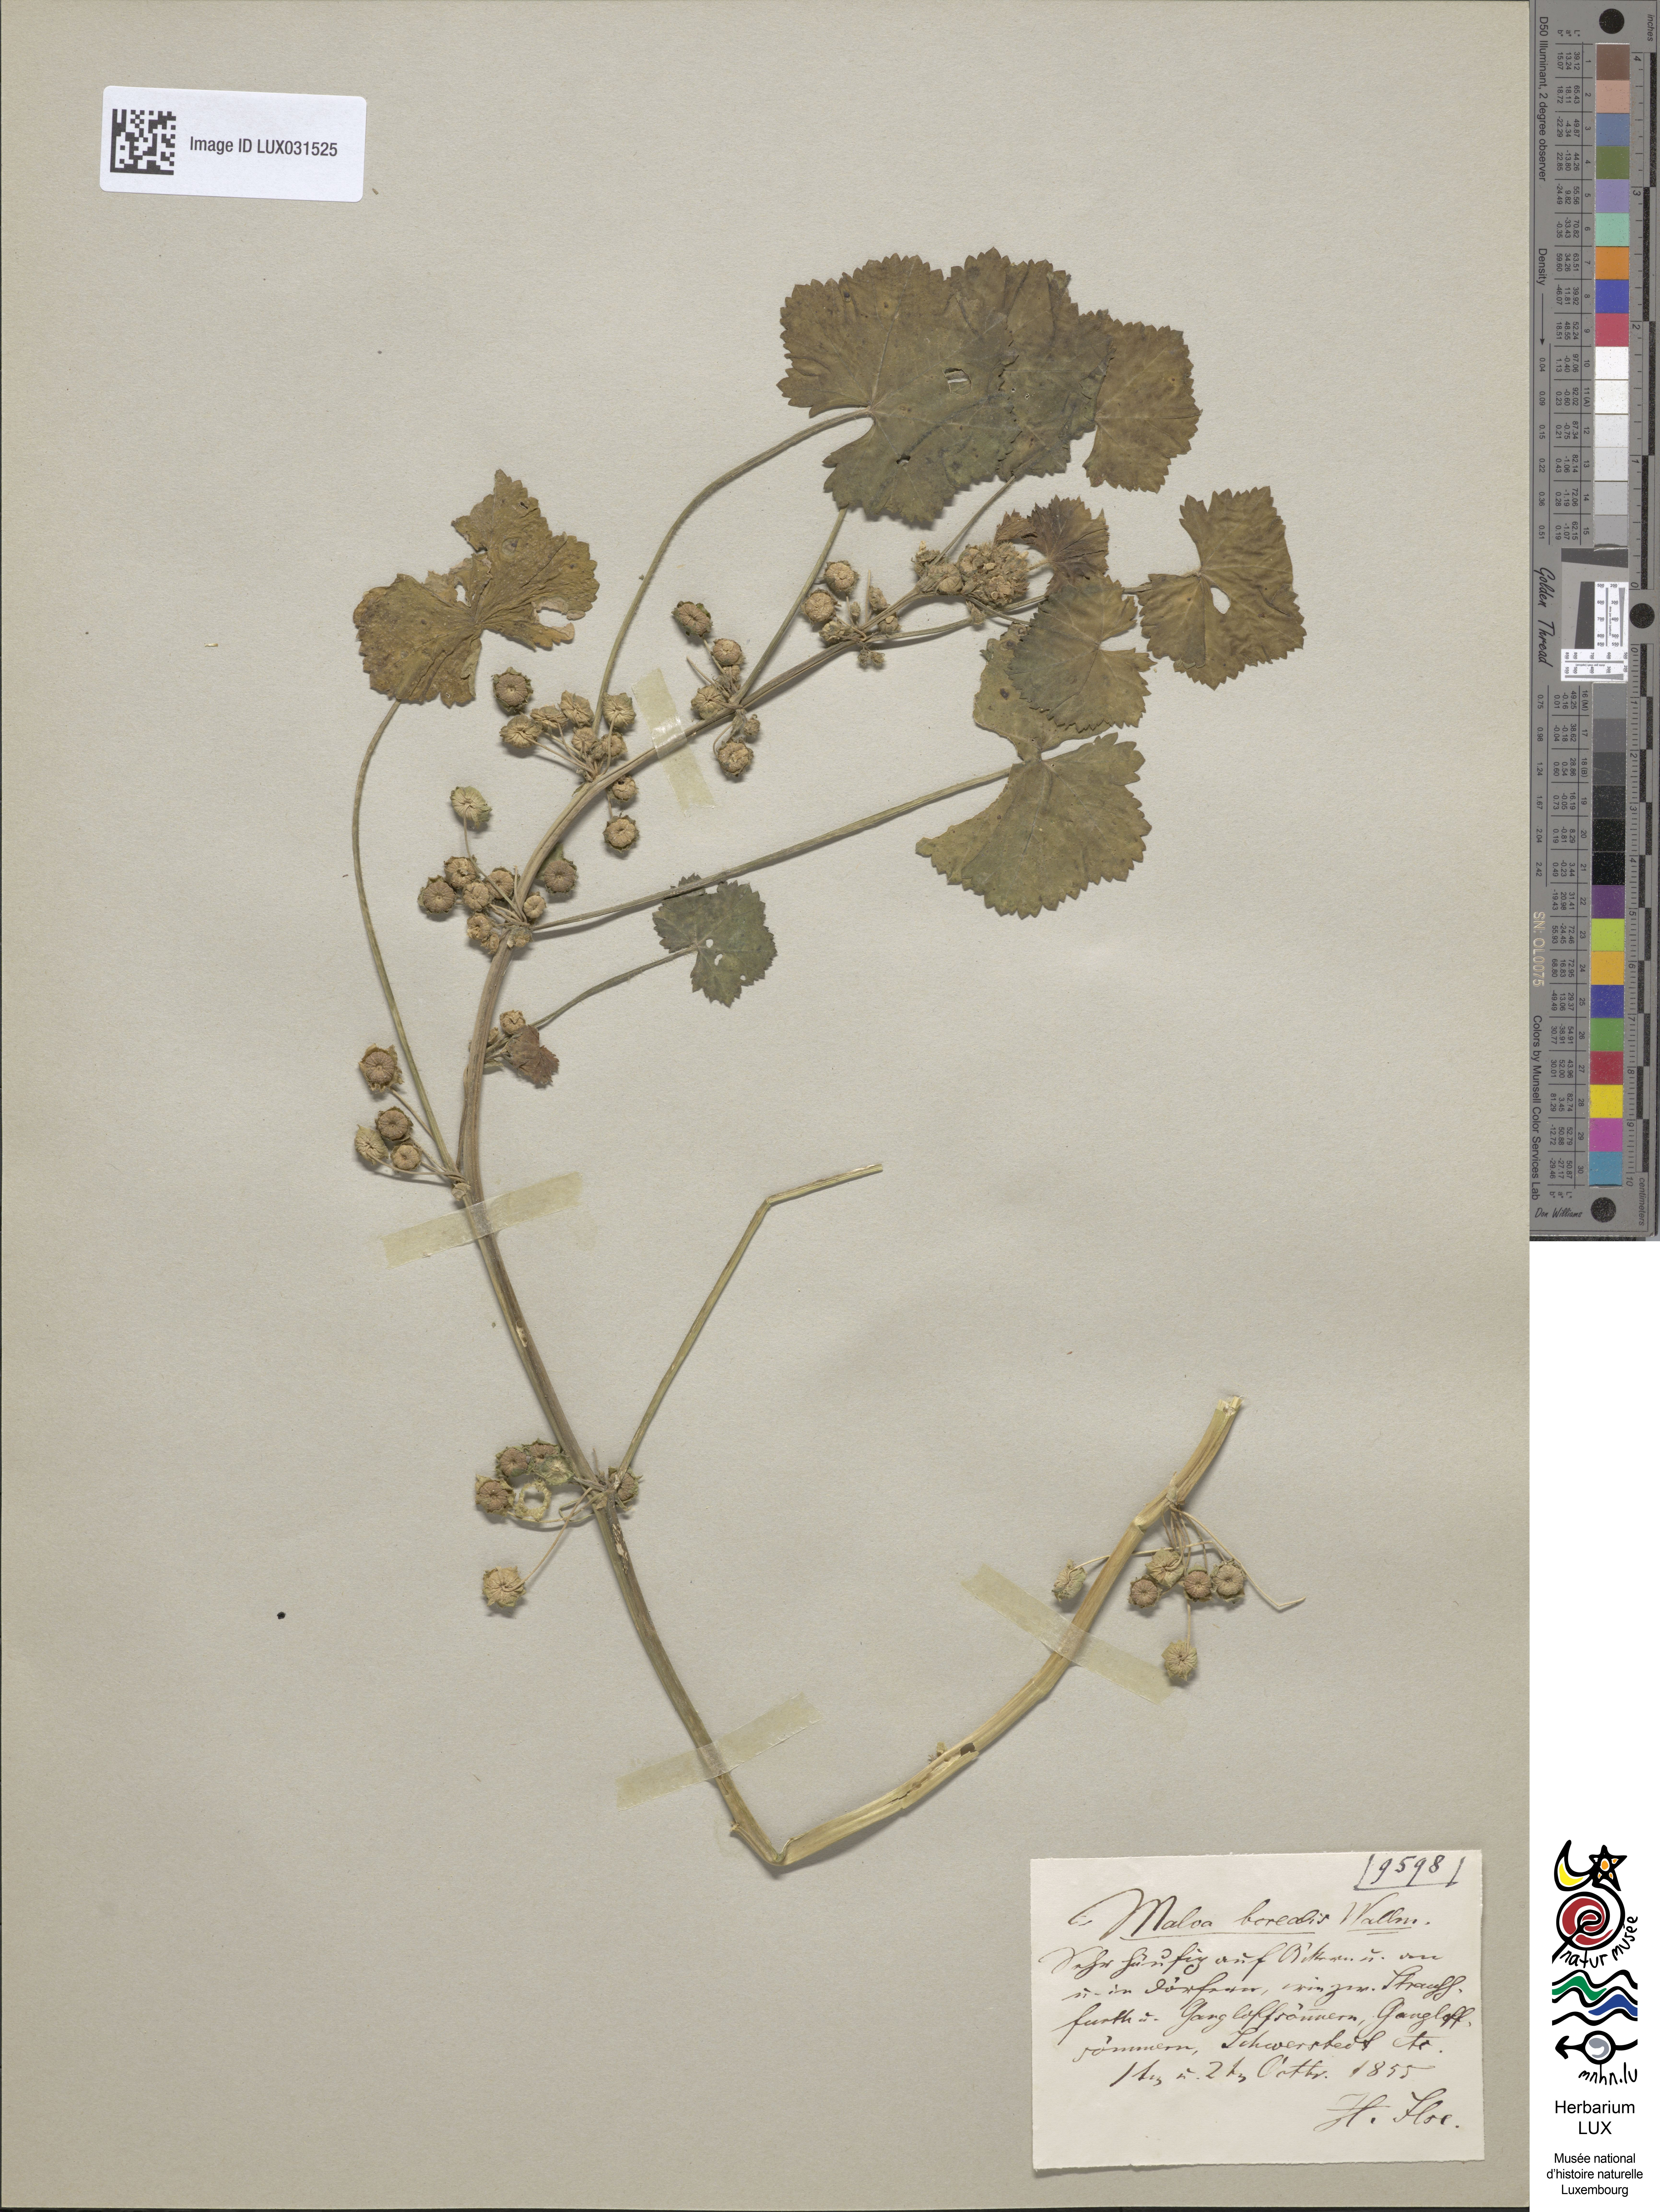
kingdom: Plantae
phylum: Tracheophyta
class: Magnoliopsida
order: Malvales
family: Malvaceae
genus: Malva
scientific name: Malva pusilla
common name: Small mallow
